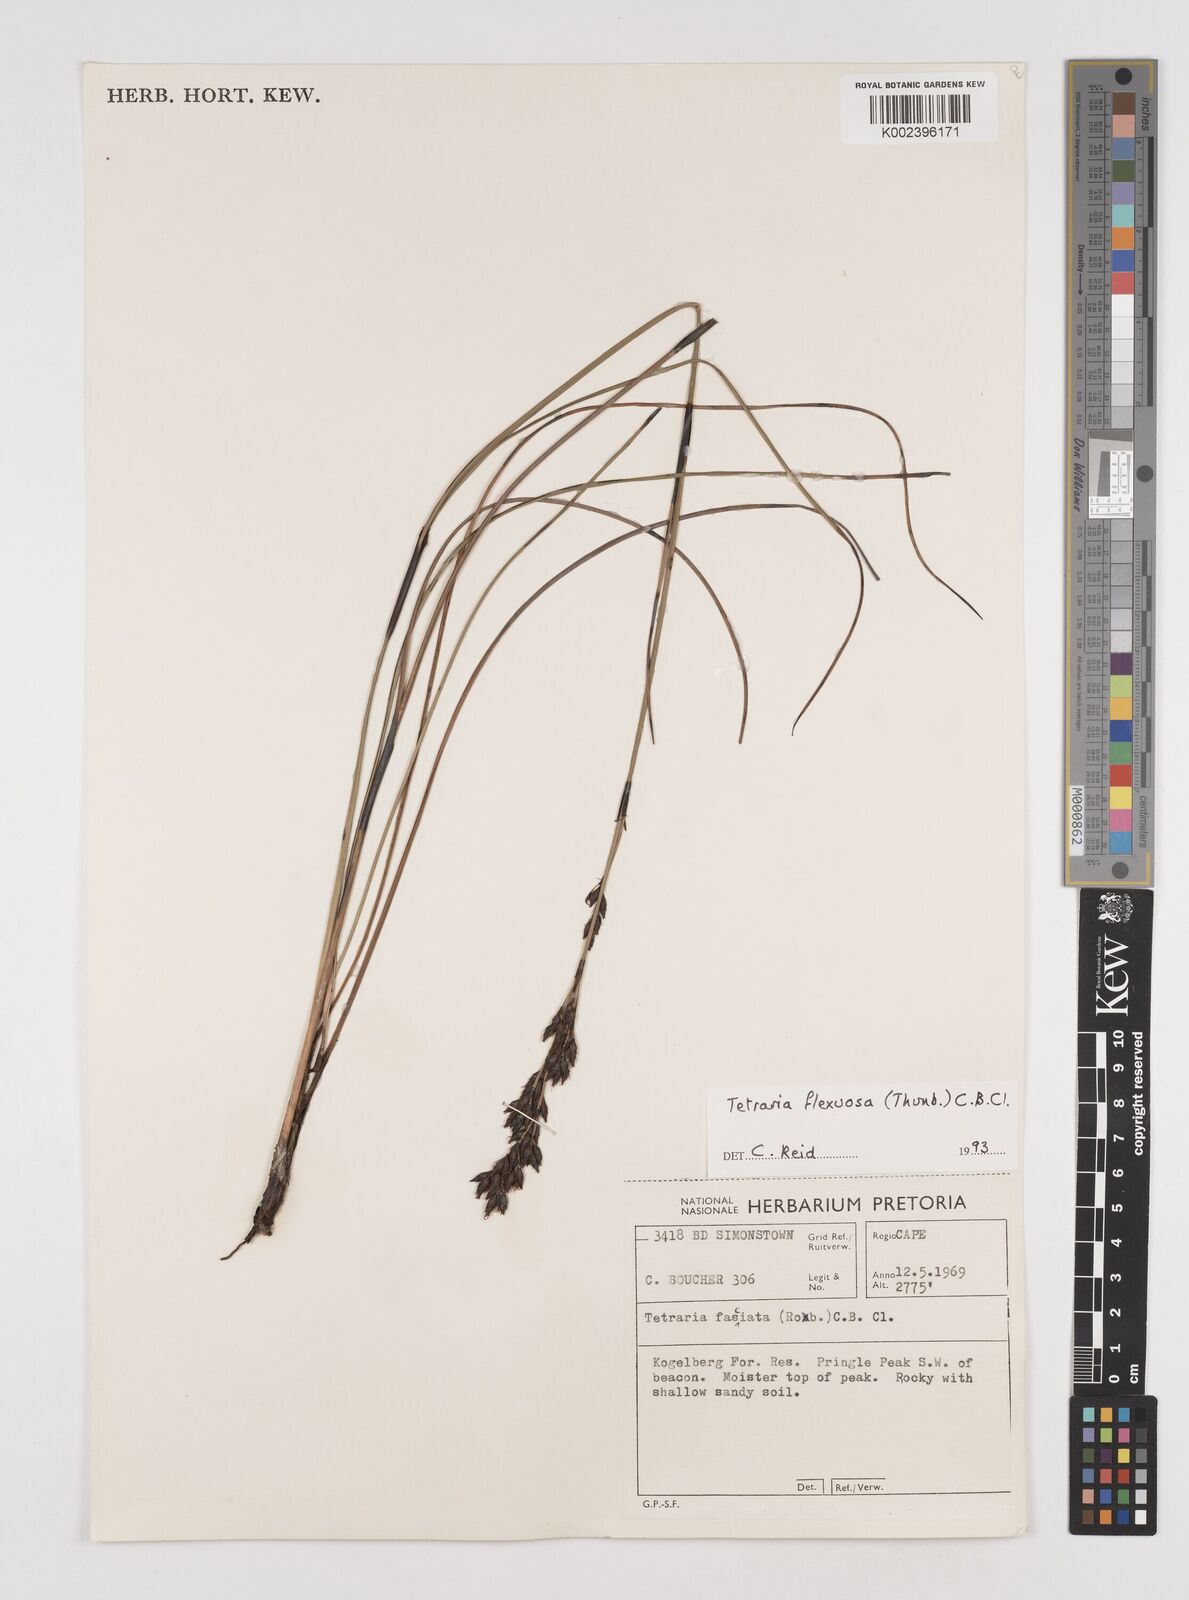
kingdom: Plantae
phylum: Tracheophyta
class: Liliopsida
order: Poales
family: Cyperaceae
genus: Tetraria
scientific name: Tetraria flexuosa
